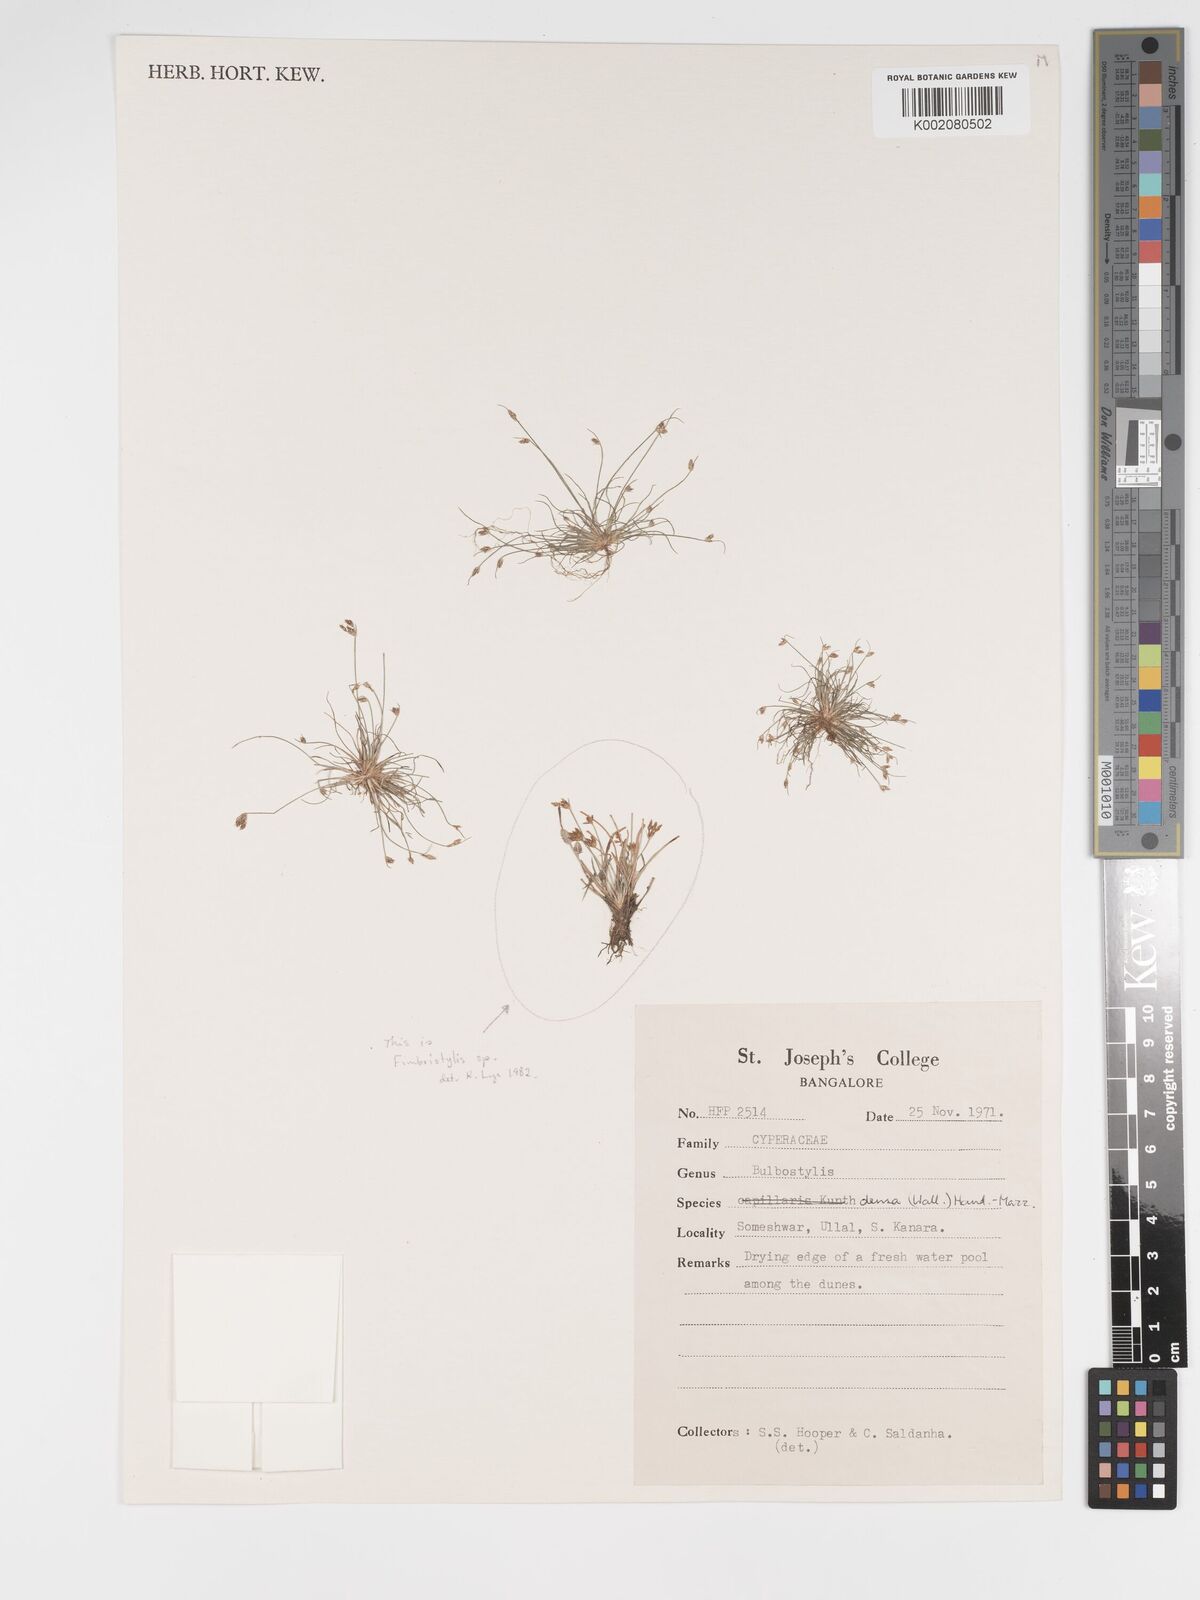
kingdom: Plantae
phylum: Tracheophyta
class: Liliopsida
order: Poales
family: Cyperaceae
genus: Bulbostylis
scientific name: Bulbostylis capillaris
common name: Densetuft hairsedge
